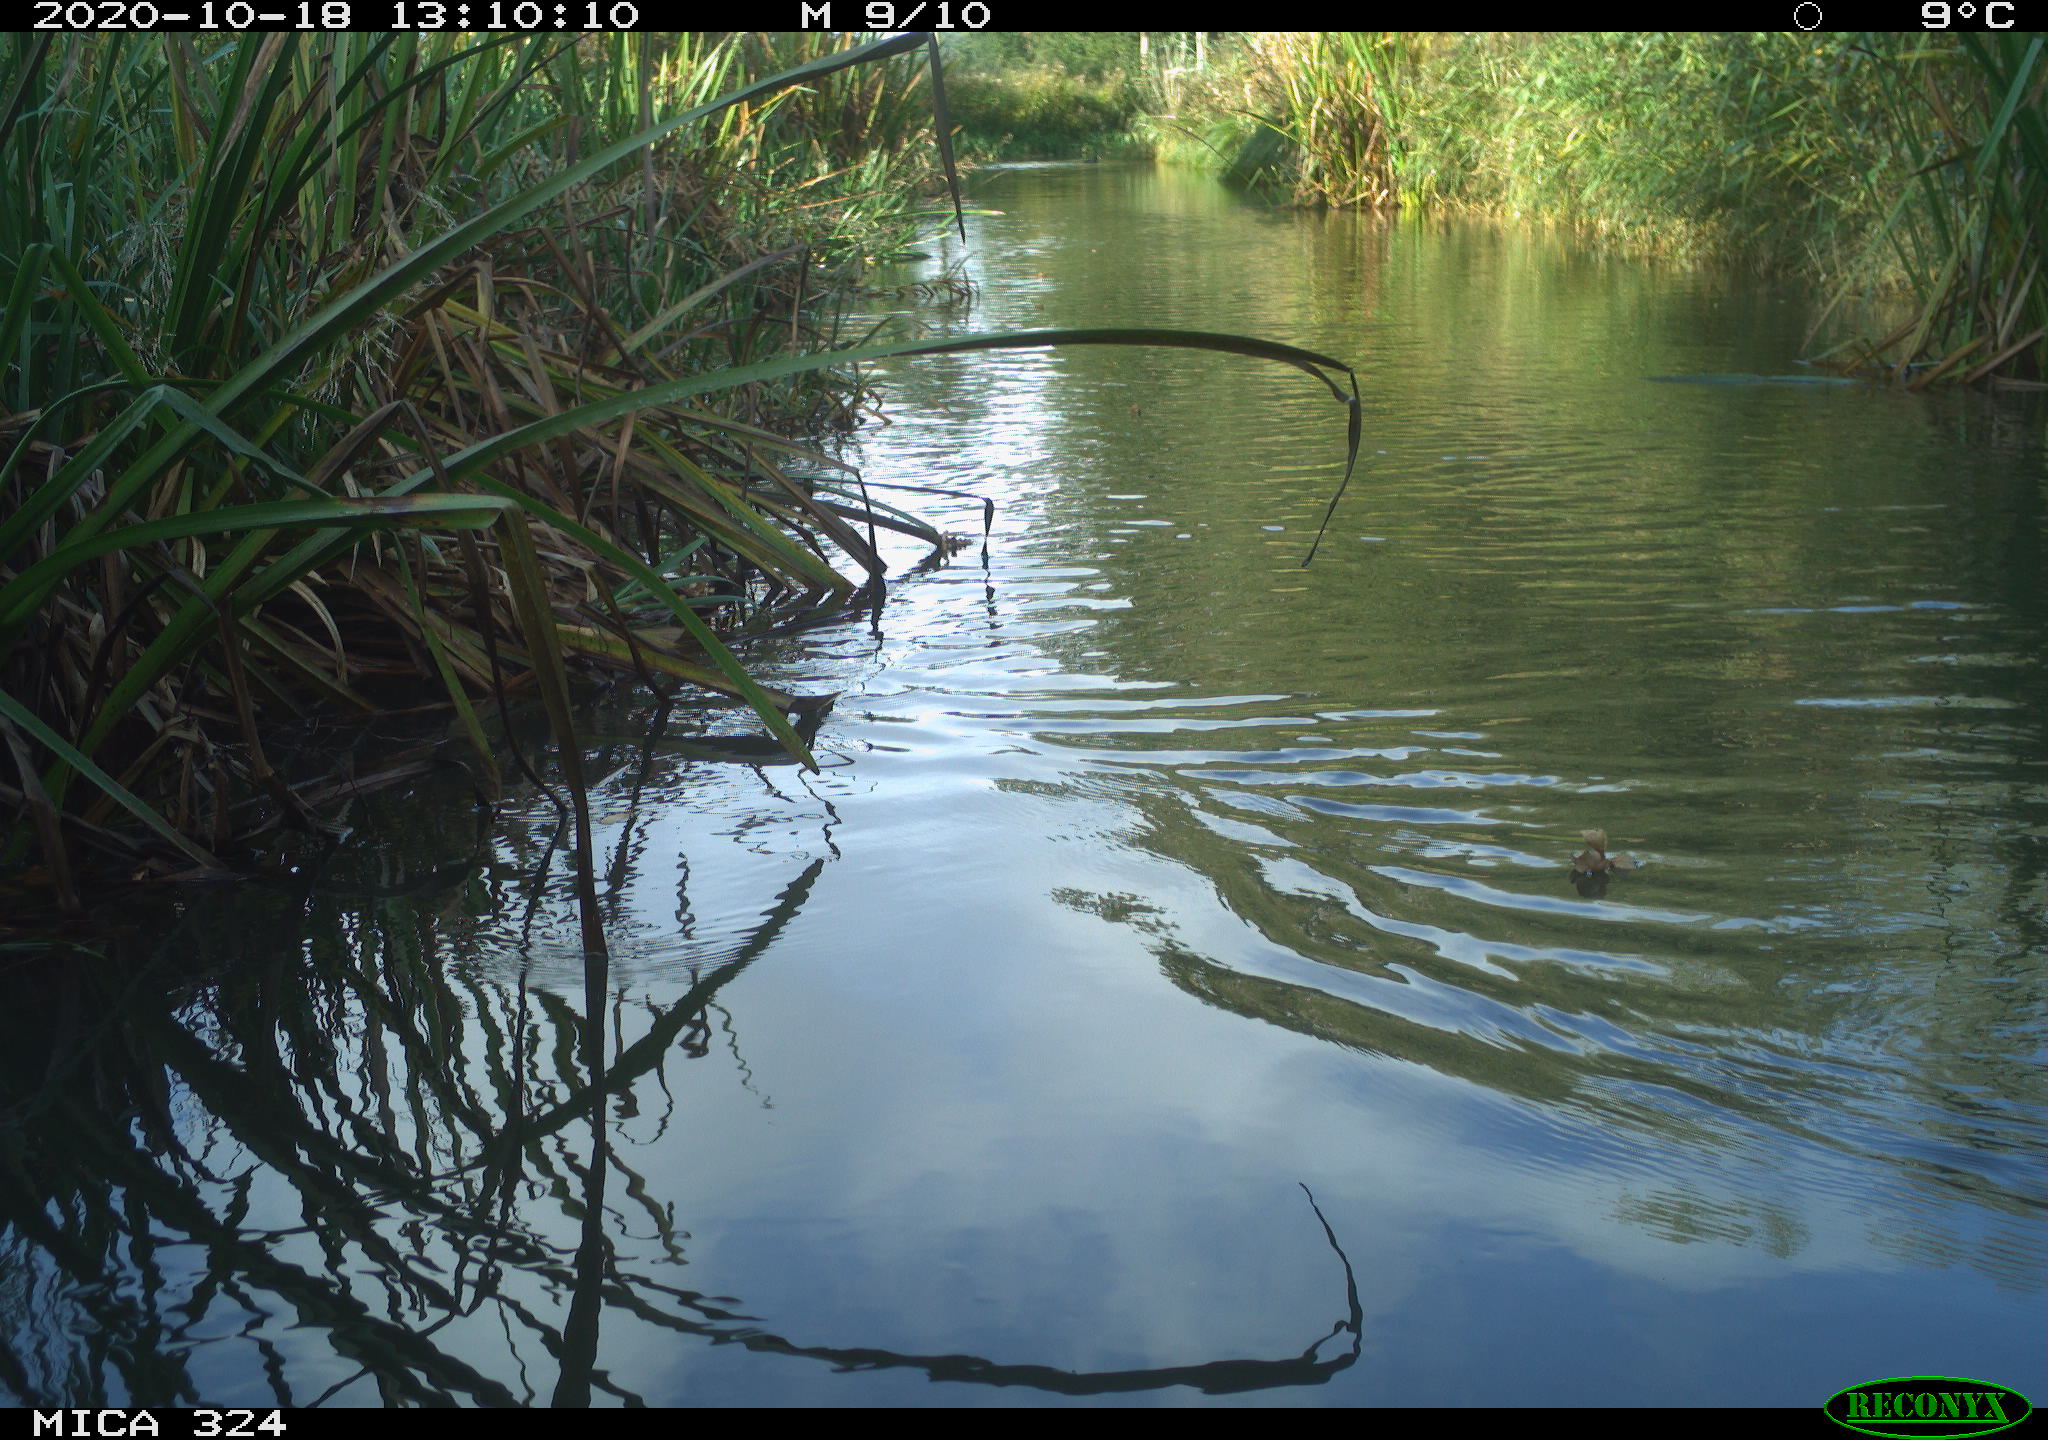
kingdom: Animalia
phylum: Chordata
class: Aves
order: Gruiformes
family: Rallidae
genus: Fulica
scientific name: Fulica atra
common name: Eurasian coot
